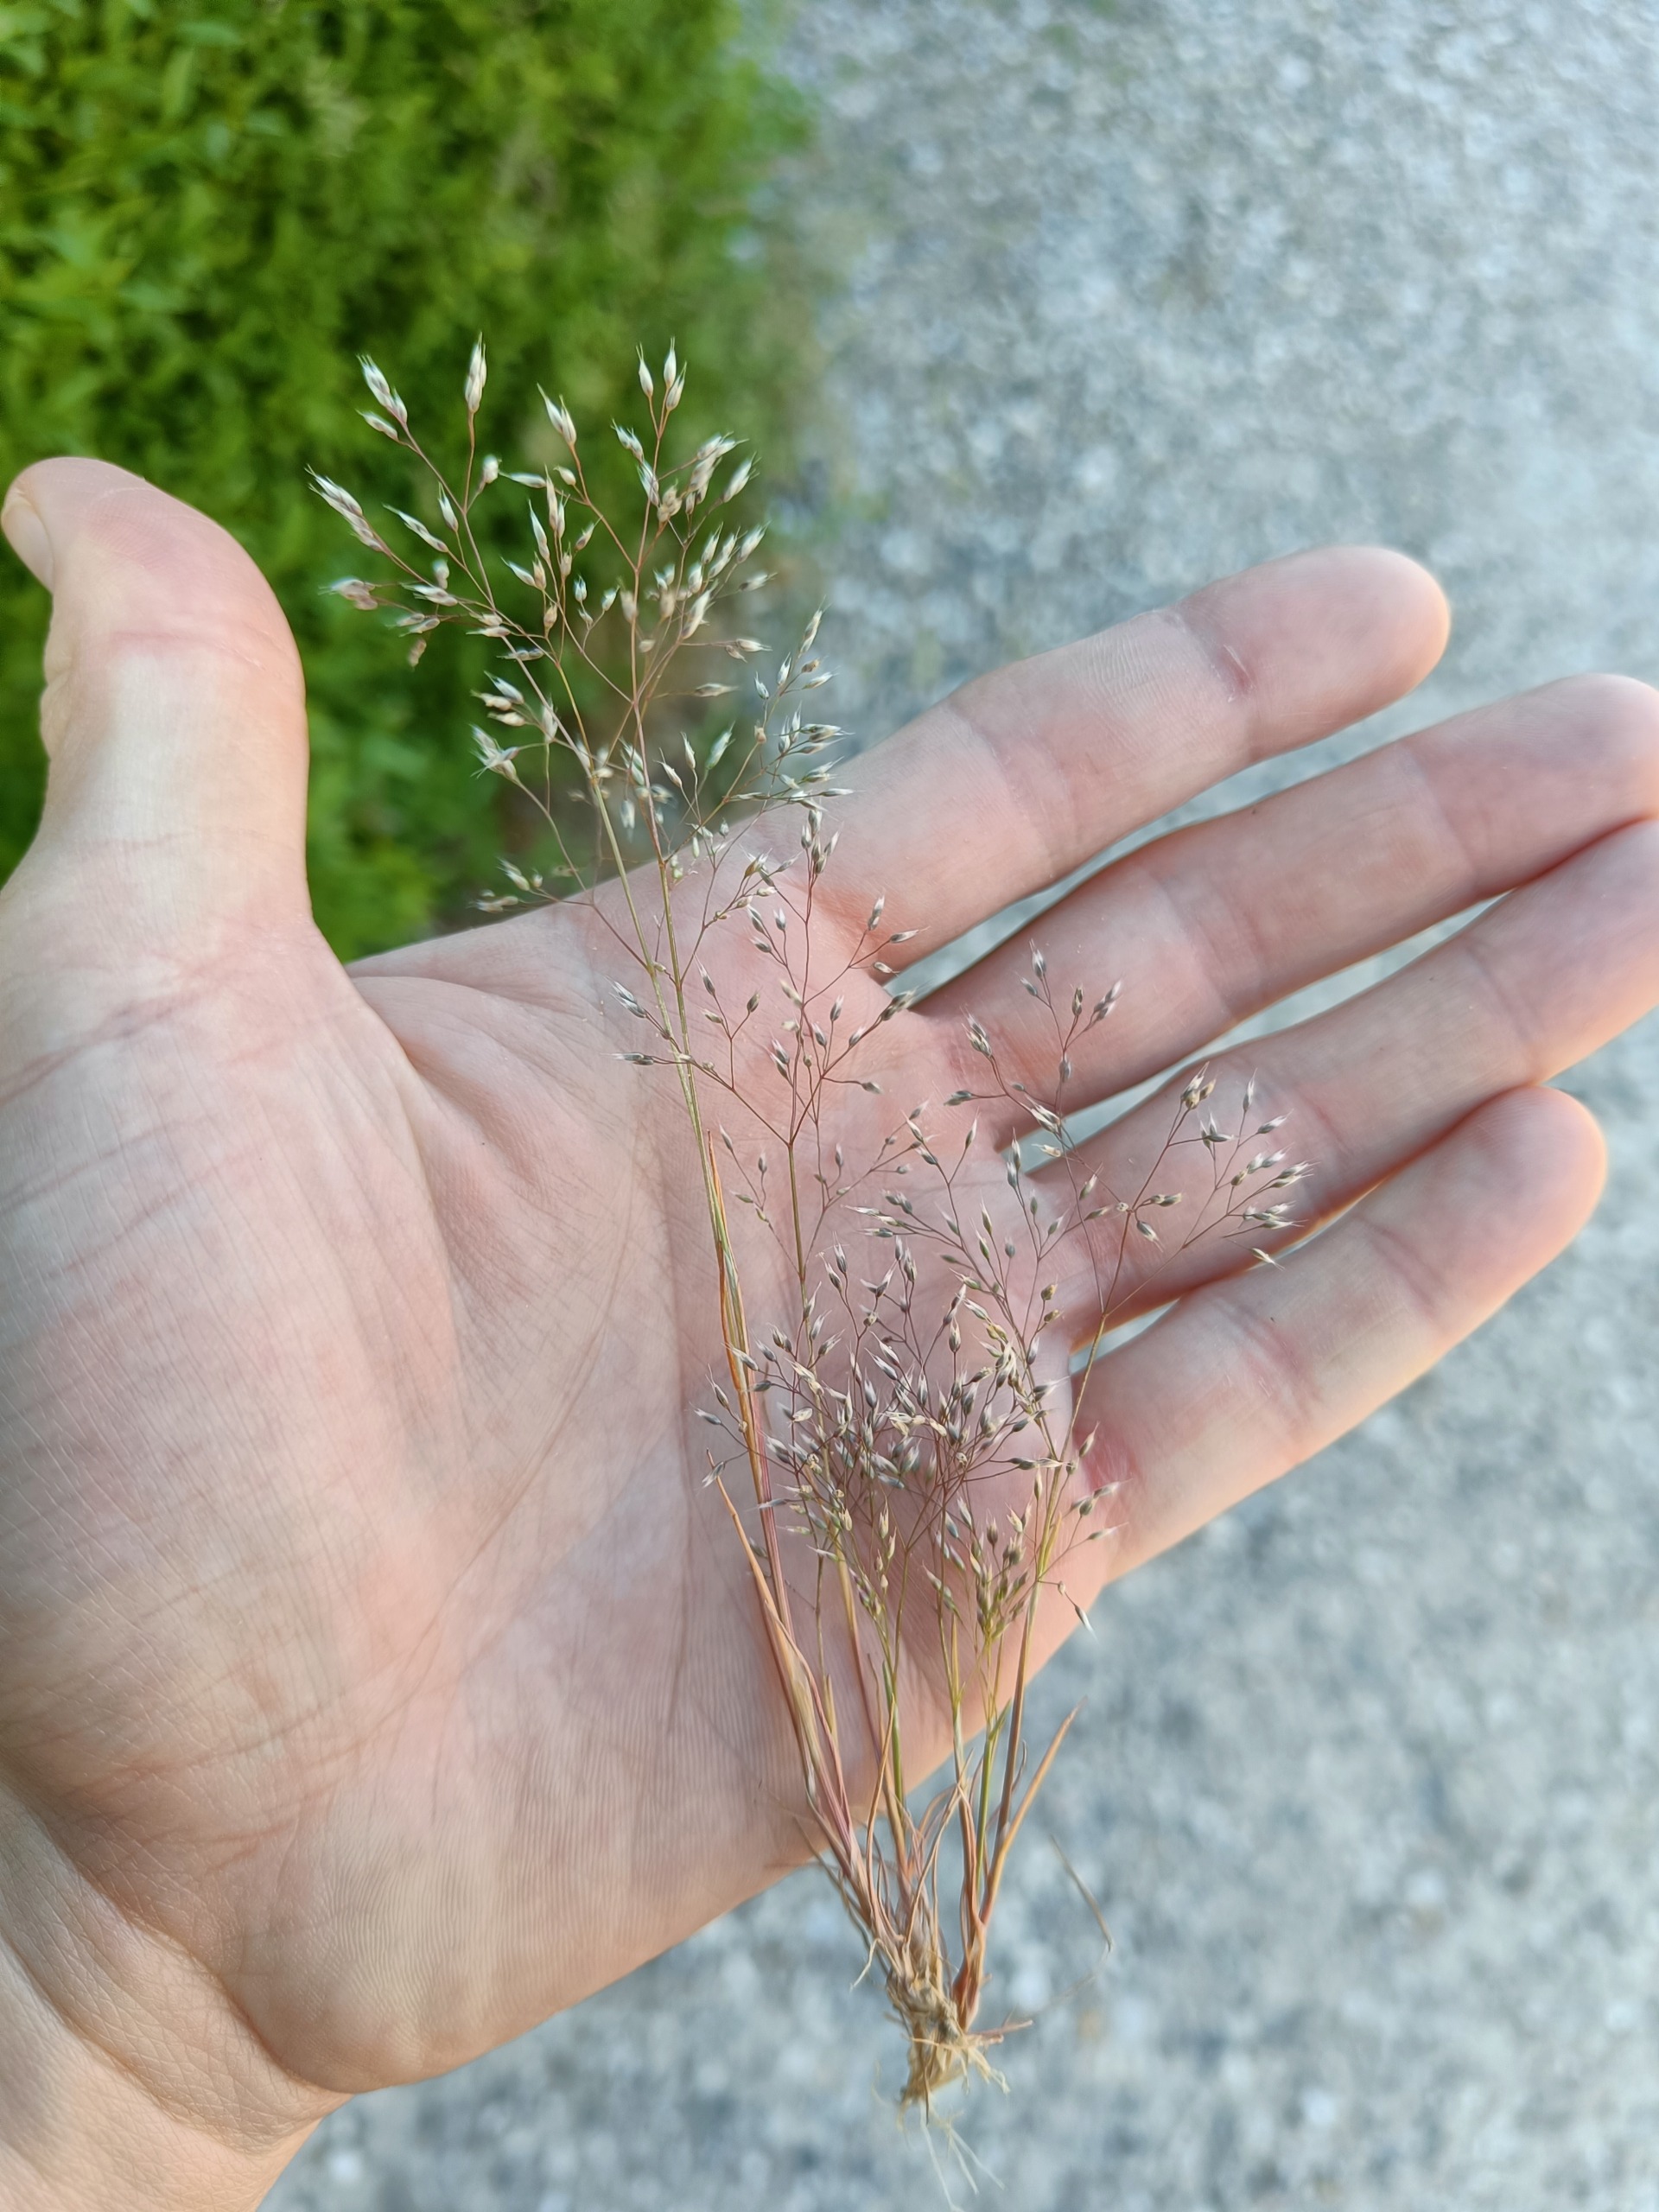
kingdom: Plantae
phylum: Tracheophyta
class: Liliopsida
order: Poales
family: Poaceae
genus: Aira
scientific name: Aira caryophyllea
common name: Udspærret dværgbunke
